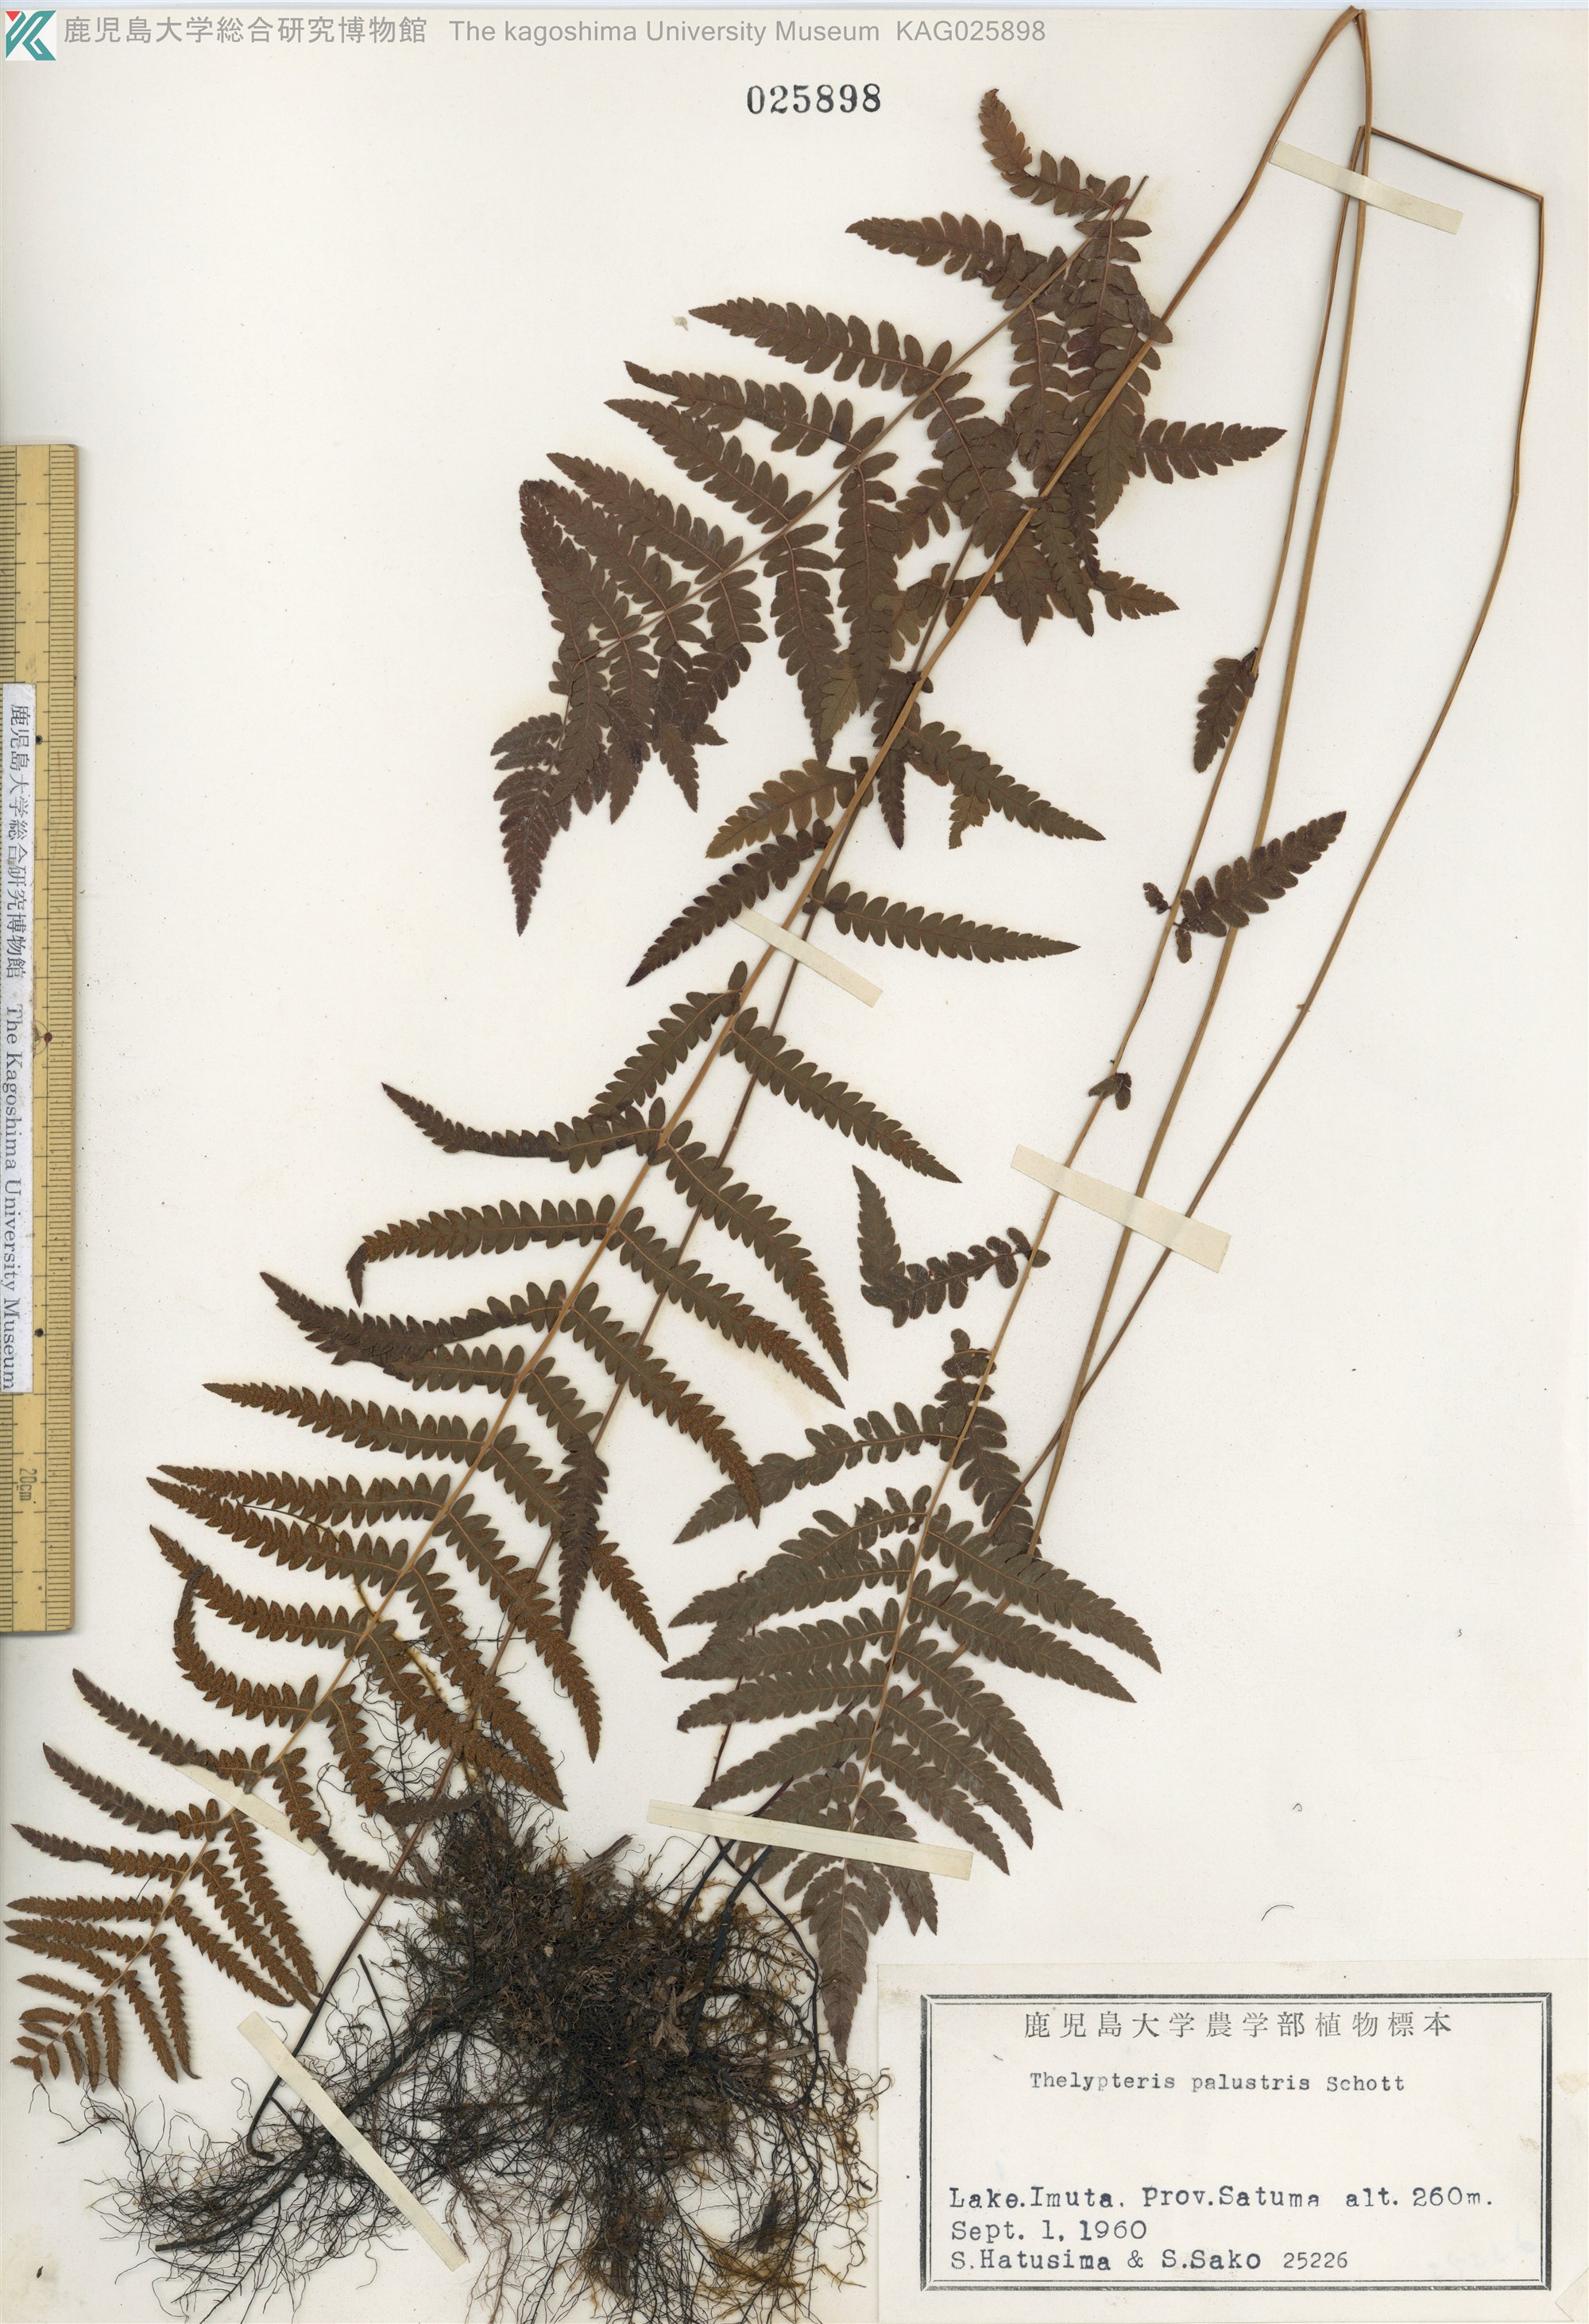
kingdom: Plantae
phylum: Tracheophyta
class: Polypodiopsida
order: Polypodiales
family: Thelypteridaceae
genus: Thelypteris
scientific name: Thelypteris palustris
